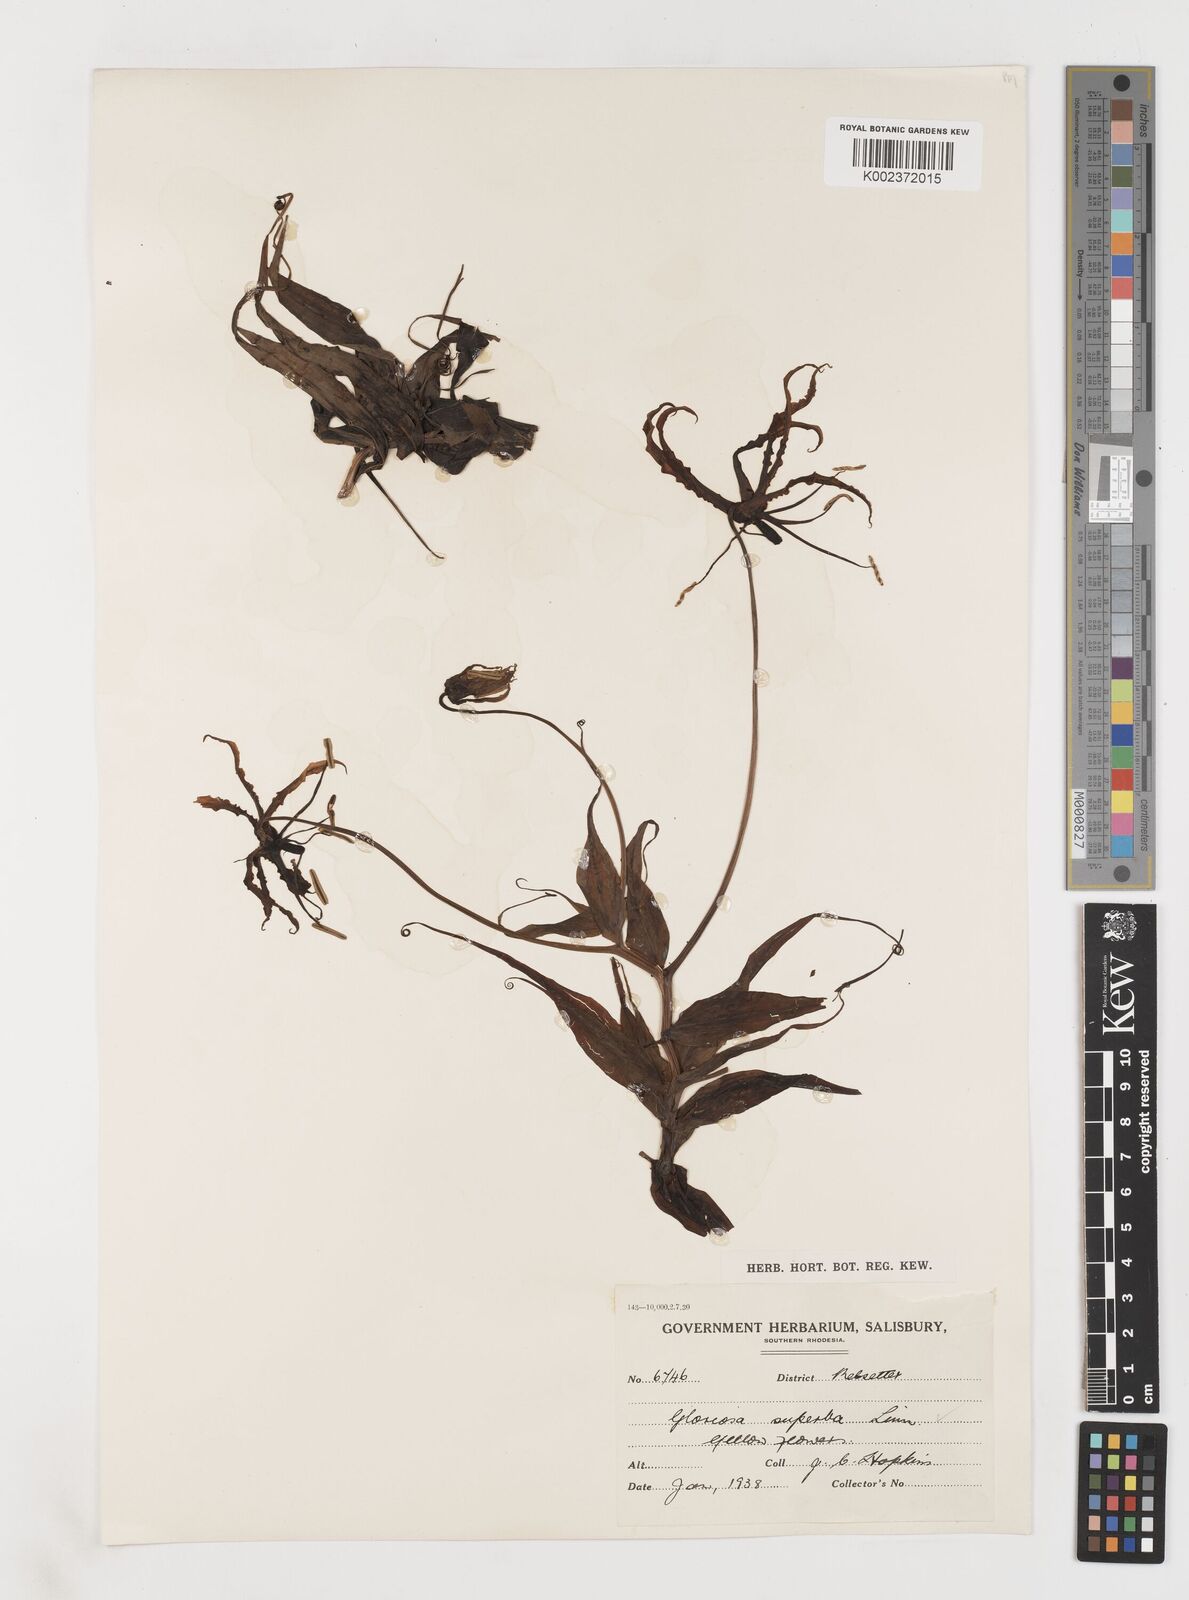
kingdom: Plantae
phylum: Tracheophyta
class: Liliopsida
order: Liliales
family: Colchicaceae
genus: Gloriosa
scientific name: Gloriosa superba
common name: Flame lily
